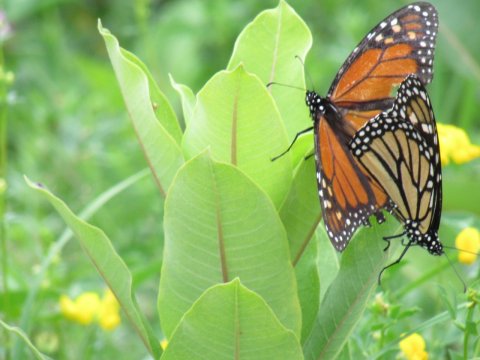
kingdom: Animalia
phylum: Arthropoda
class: Insecta
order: Lepidoptera
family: Nymphalidae
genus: Danaus
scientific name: Danaus plexippus
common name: Monarch
